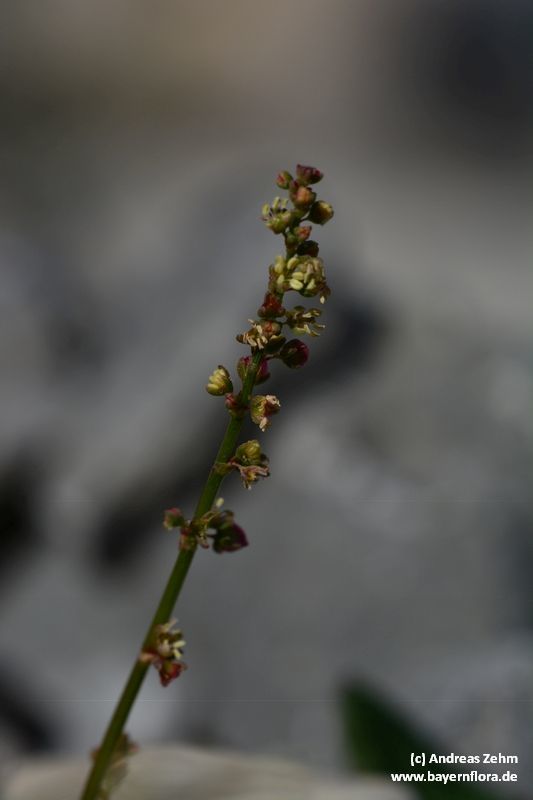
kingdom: Plantae
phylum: Tracheophyta
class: Magnoliopsida
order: Caryophyllales
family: Polygonaceae
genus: Rumex
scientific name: Rumex scutatus
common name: French sorrel
